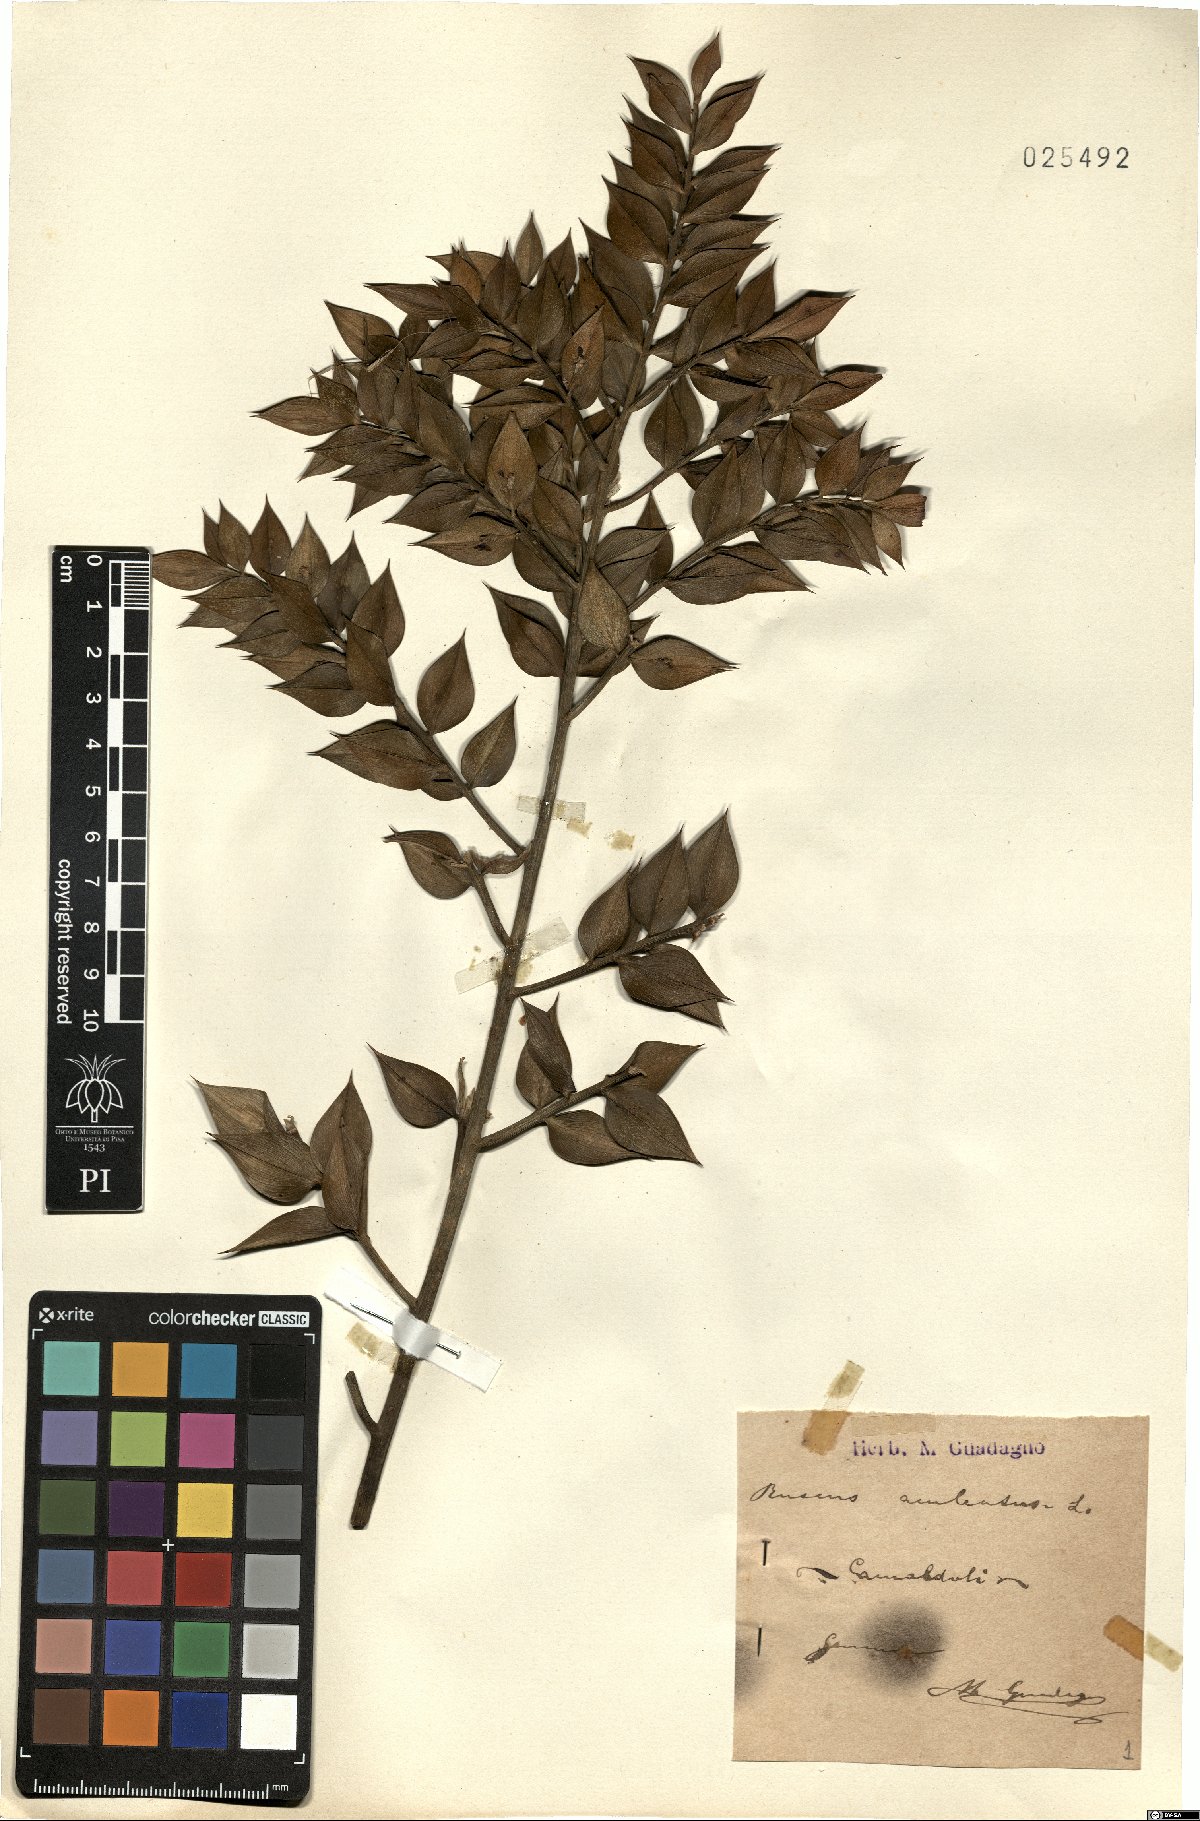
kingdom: Plantae
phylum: Tracheophyta
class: Liliopsida
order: Asparagales
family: Asparagaceae
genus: Ruscus
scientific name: Ruscus aculeatus
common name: Butcher's-broom
